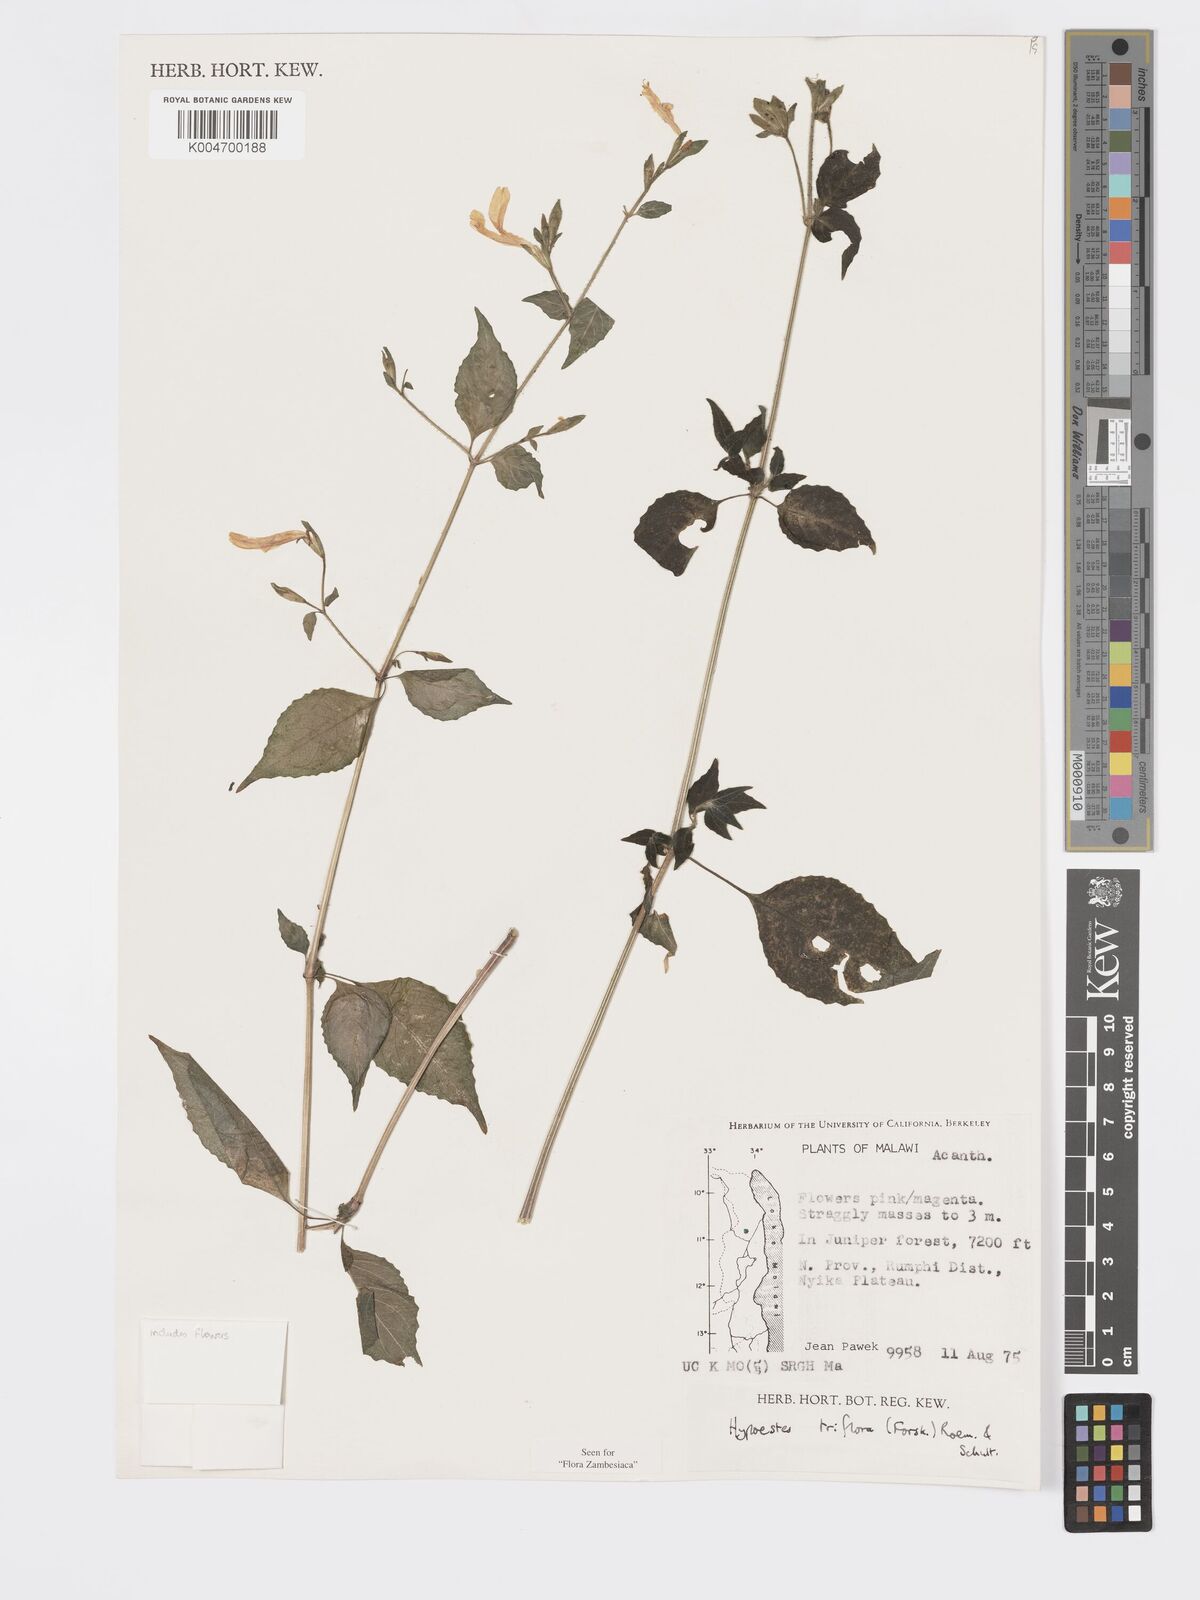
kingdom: Plantae
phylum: Tracheophyta
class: Magnoliopsida
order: Lamiales
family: Acanthaceae
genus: Hypoestes
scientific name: Hypoestes triflora
